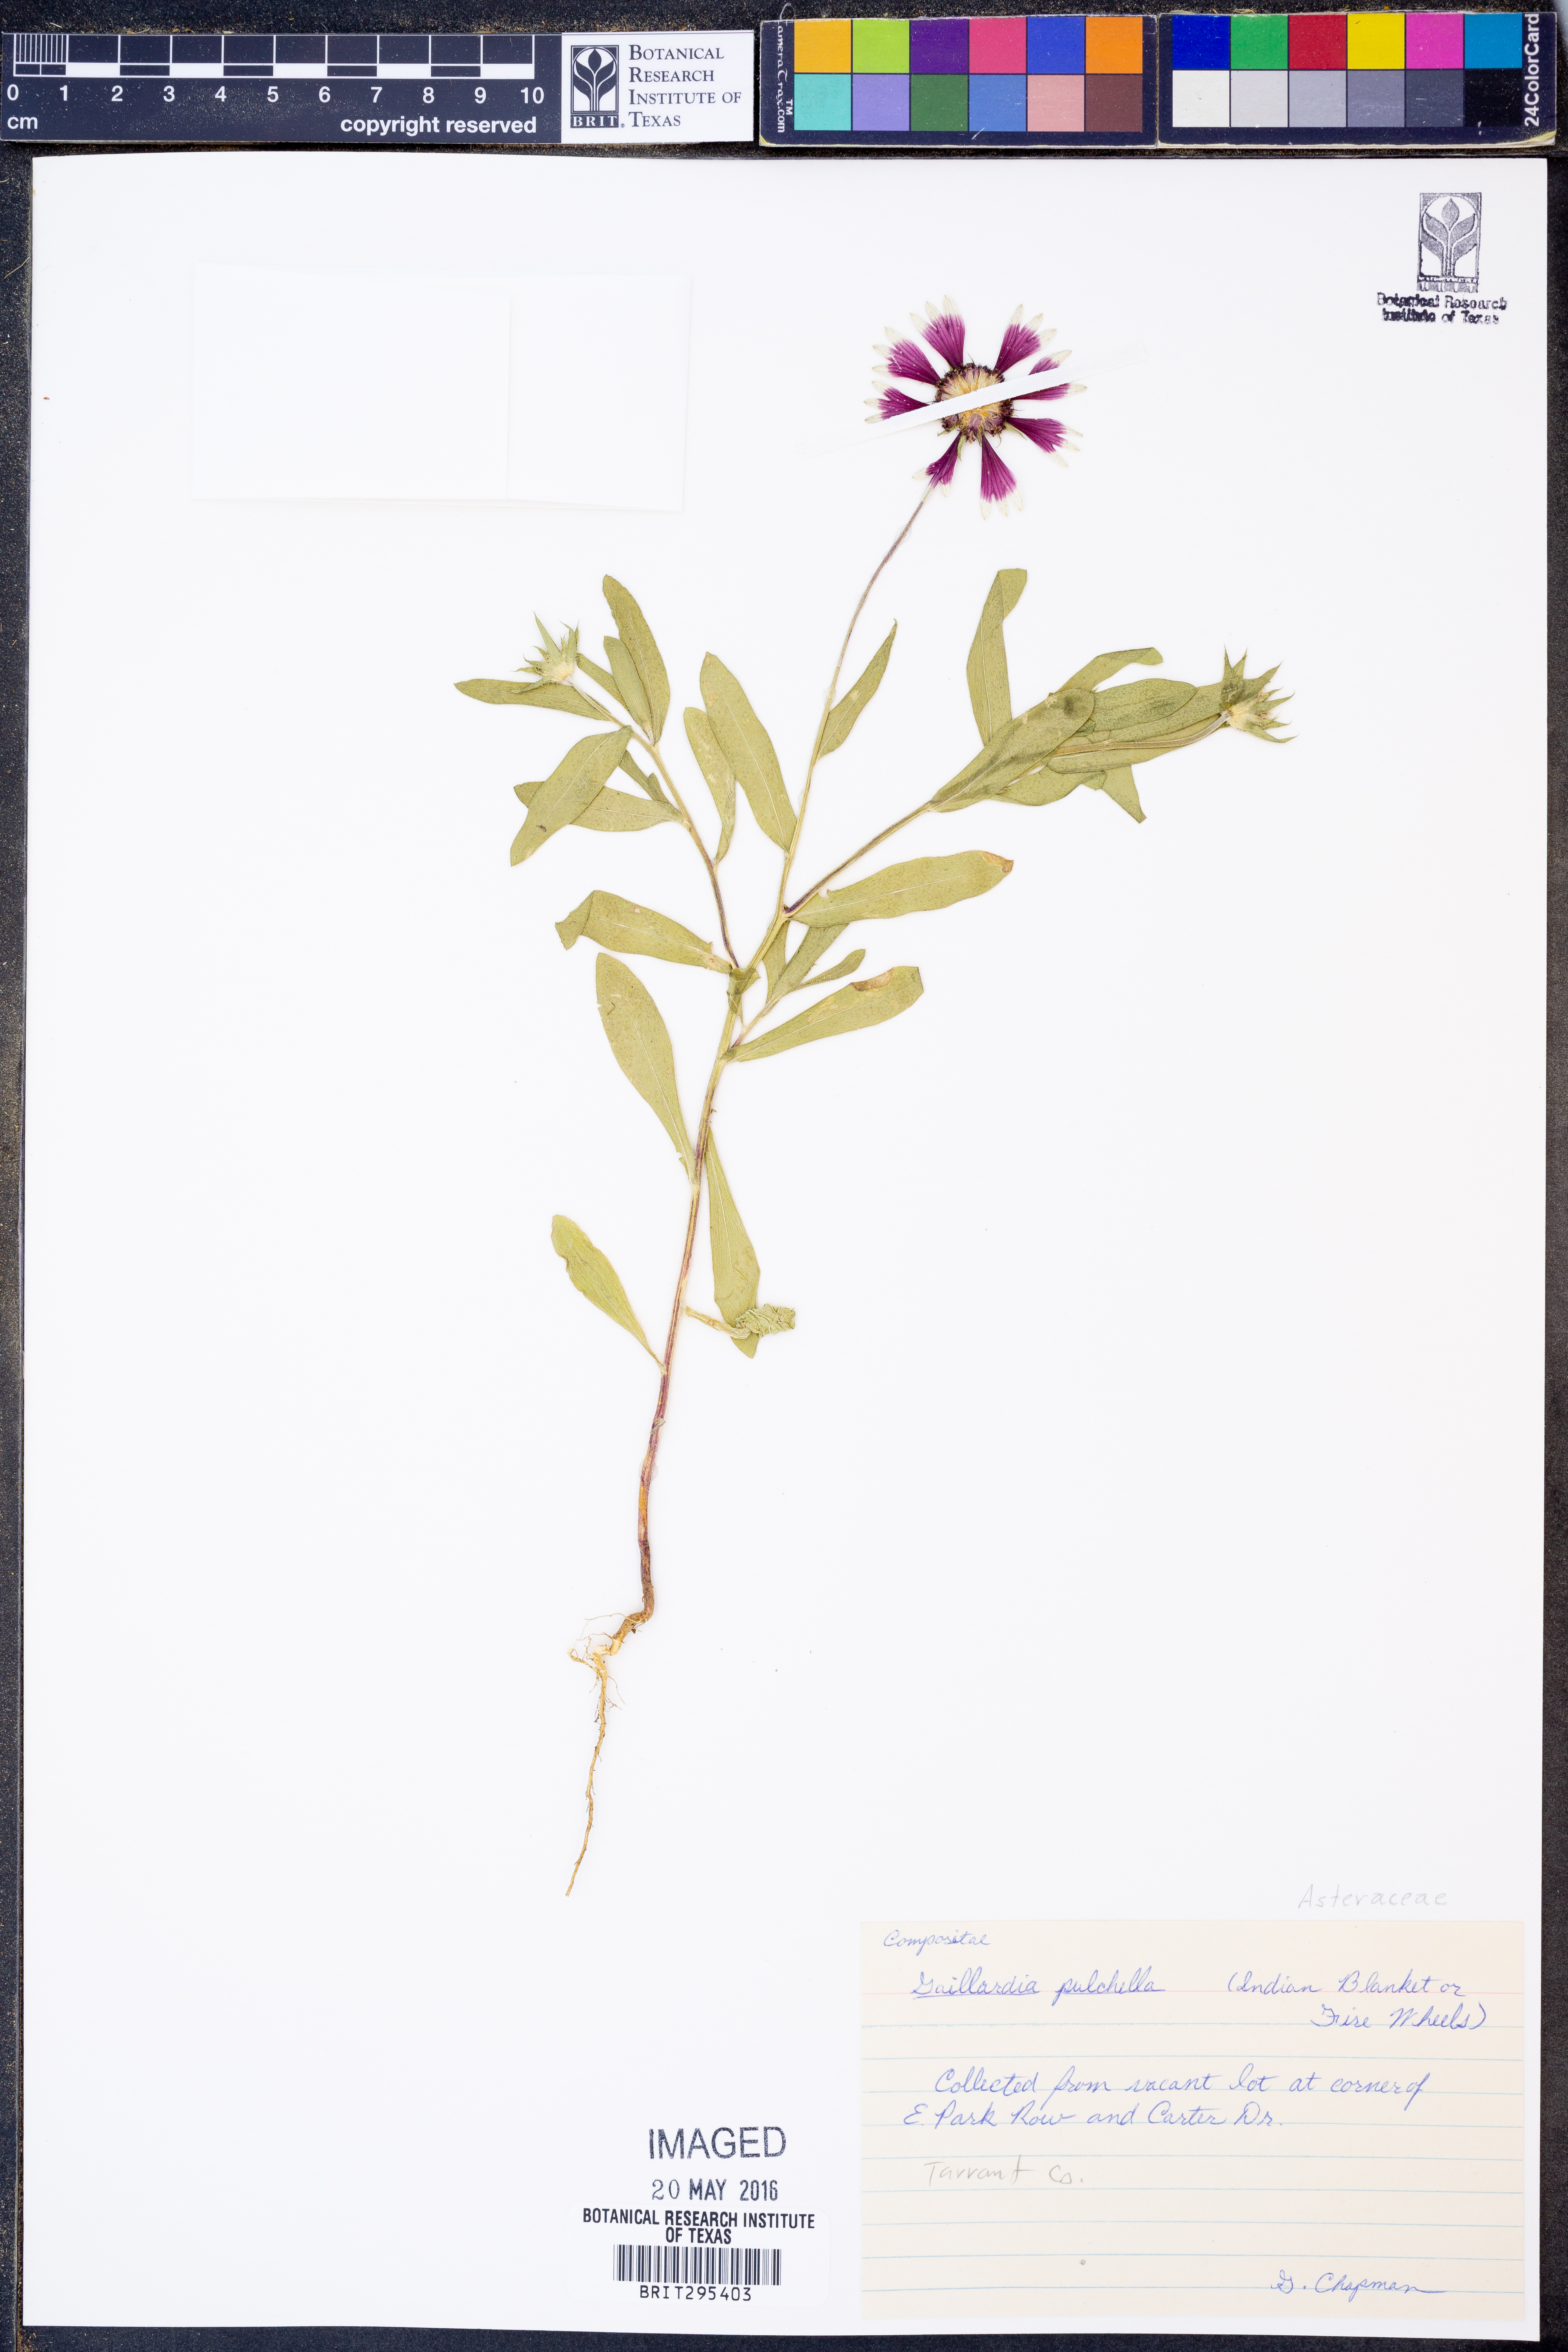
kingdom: Plantae
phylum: Tracheophyta
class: Magnoliopsida
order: Asterales
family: Asteraceae
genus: Gaillardia
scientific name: Gaillardia pulchella
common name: Firewheel
